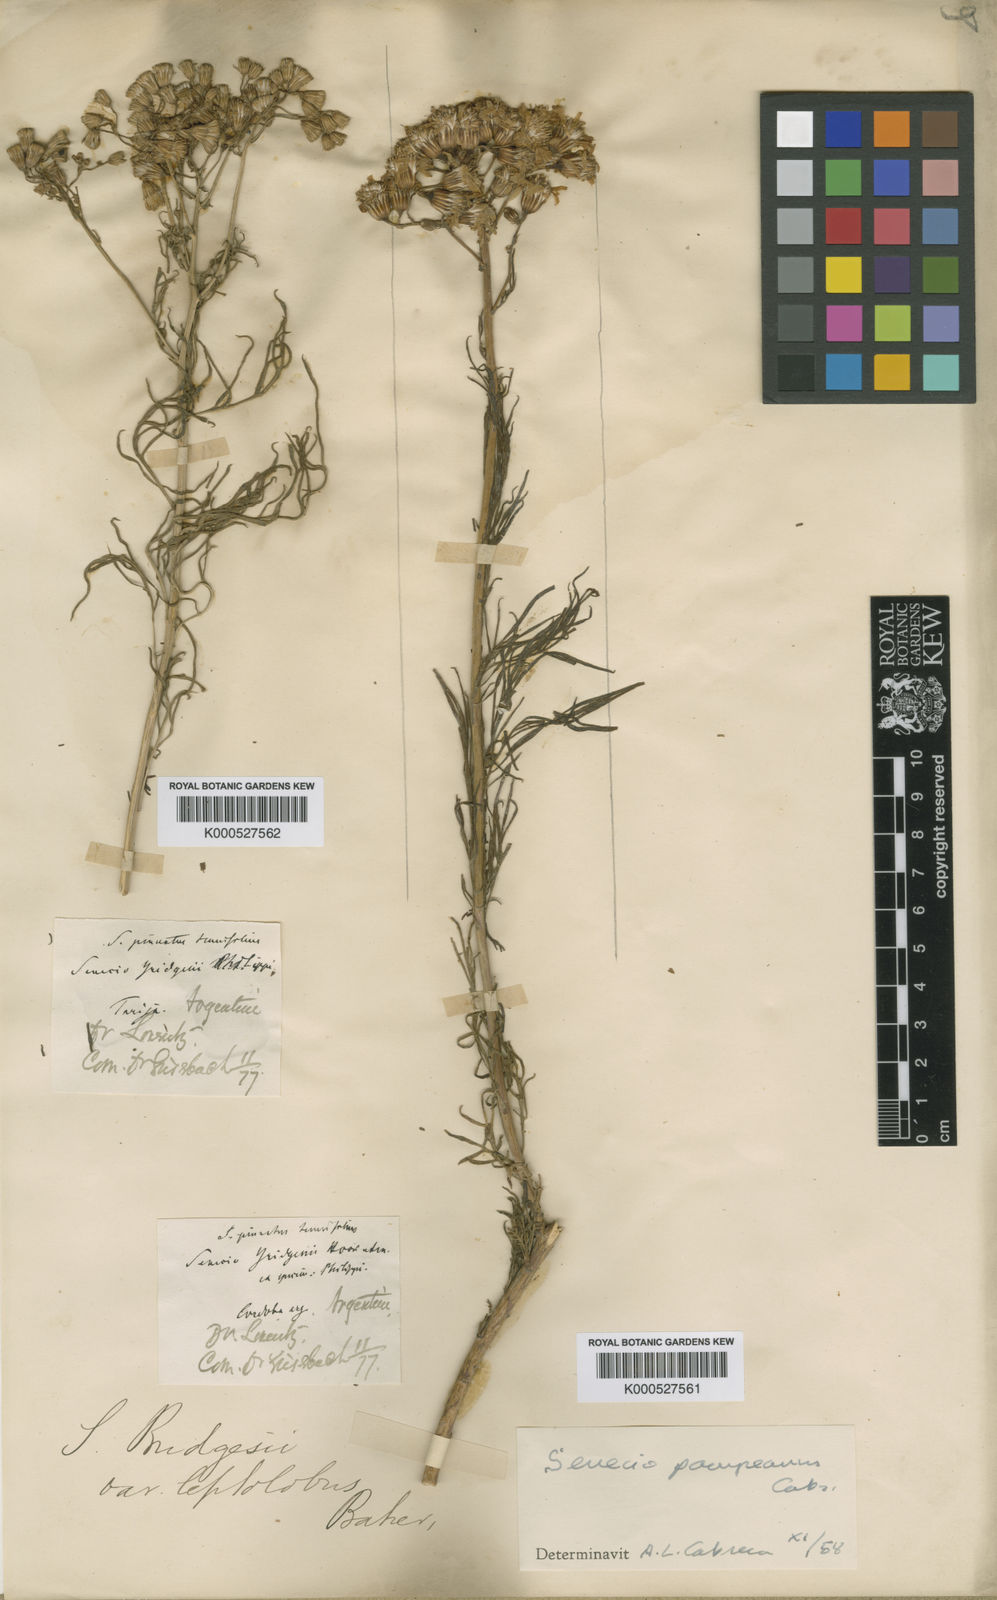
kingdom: Plantae
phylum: Tracheophyta
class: Magnoliopsida
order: Asterales
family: Asteraceae
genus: Senecio
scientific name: Senecio bridgesii
